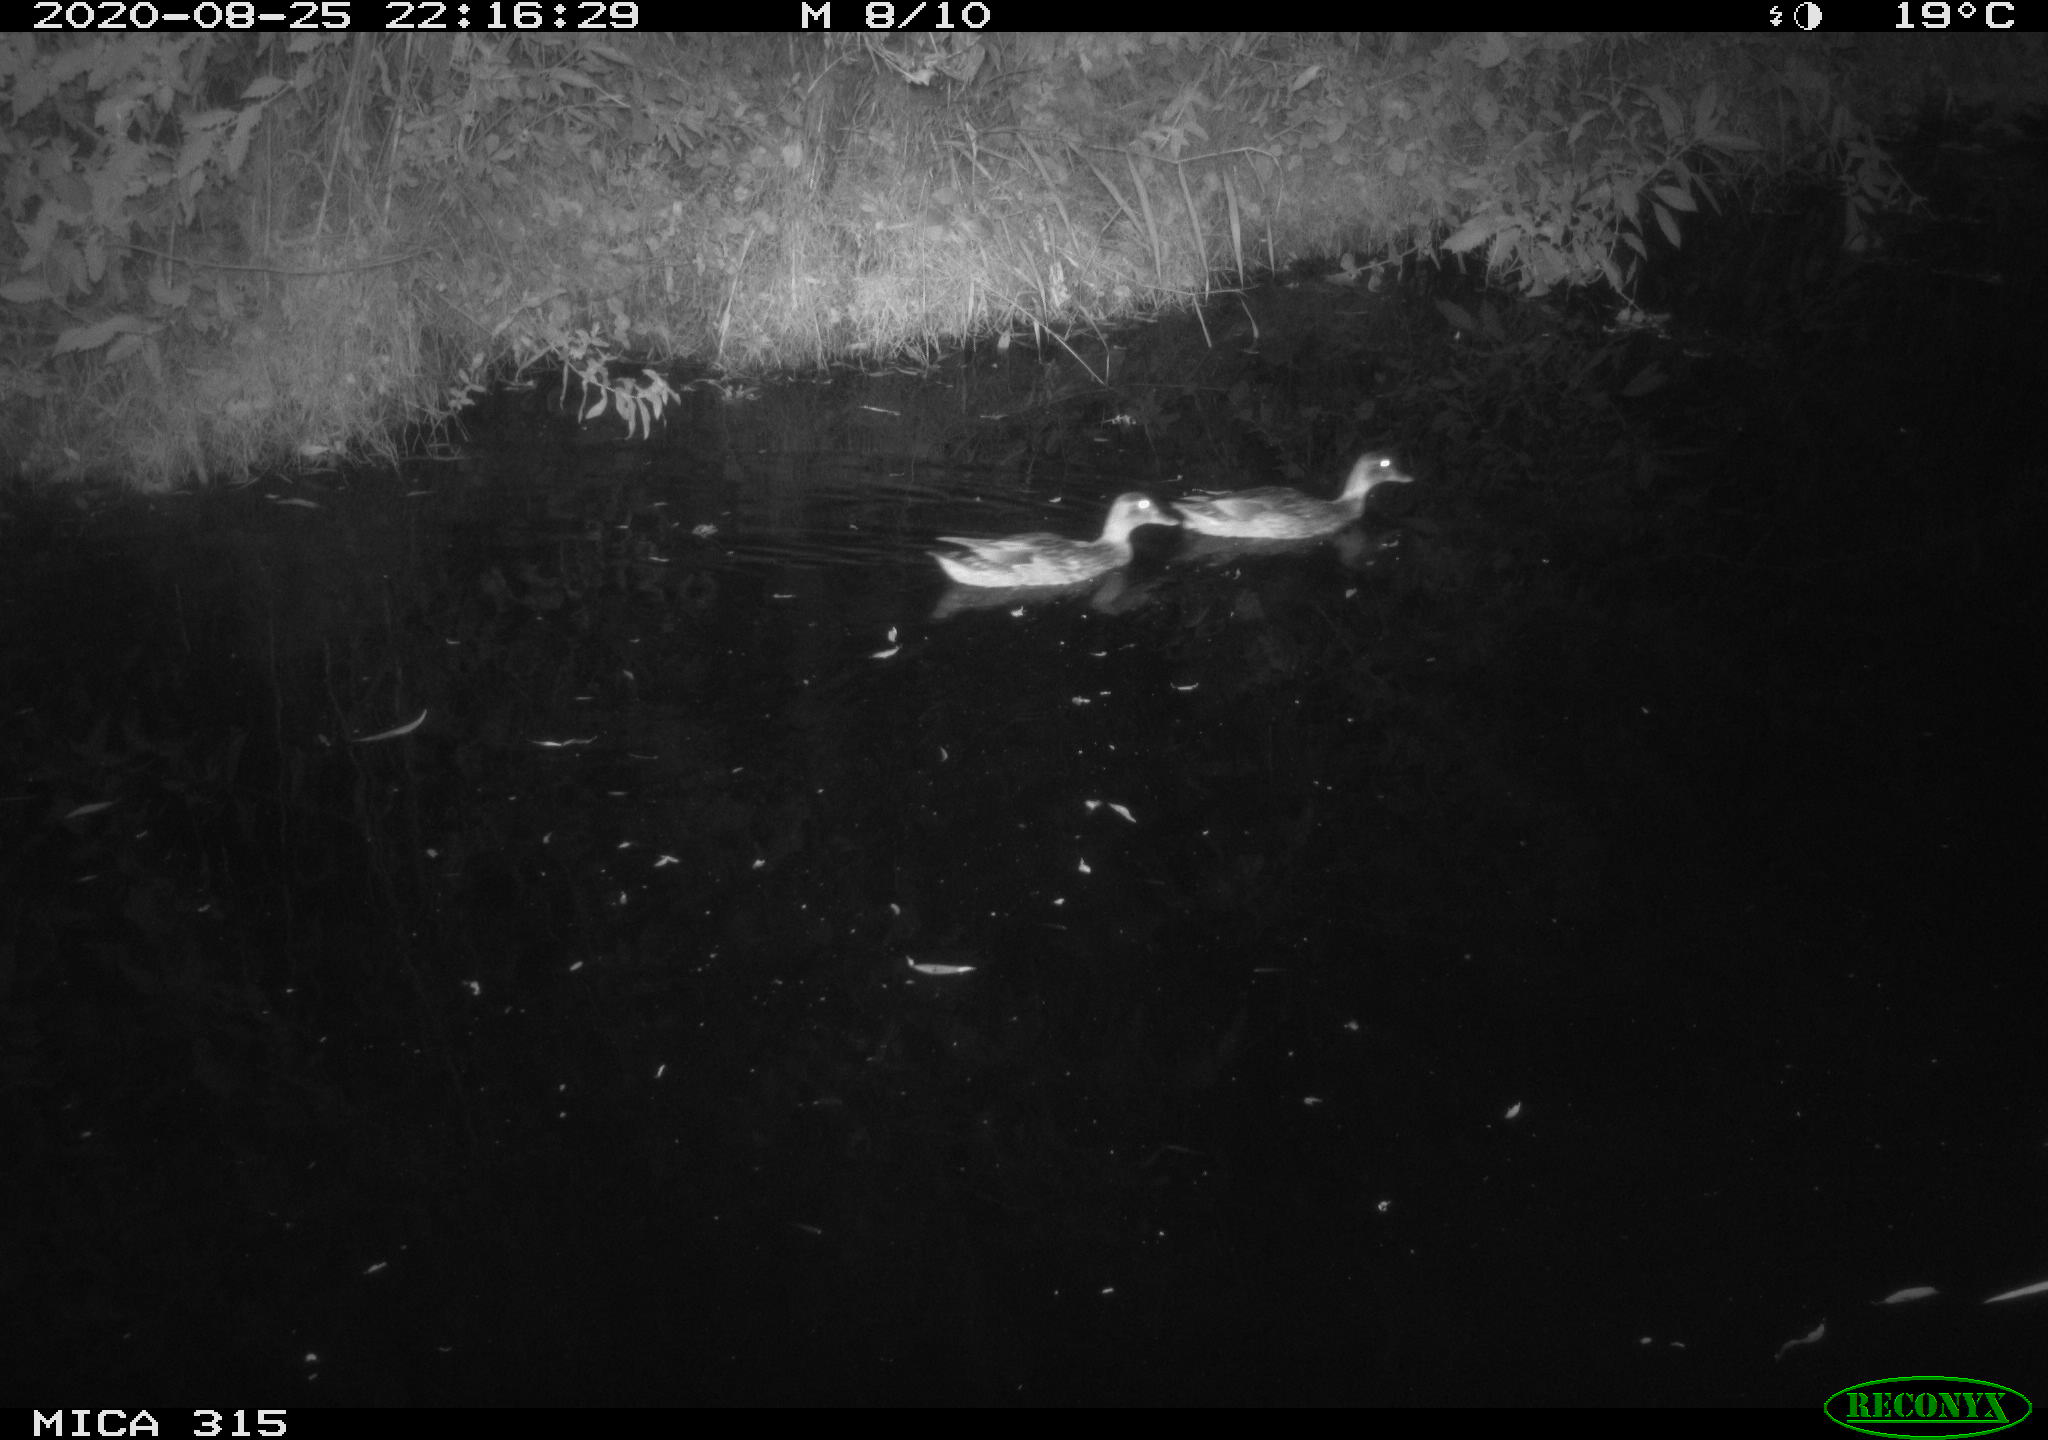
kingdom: Animalia
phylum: Chordata
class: Aves
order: Anseriformes
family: Anatidae
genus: Anas
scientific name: Anas platyrhynchos
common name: Mallard
